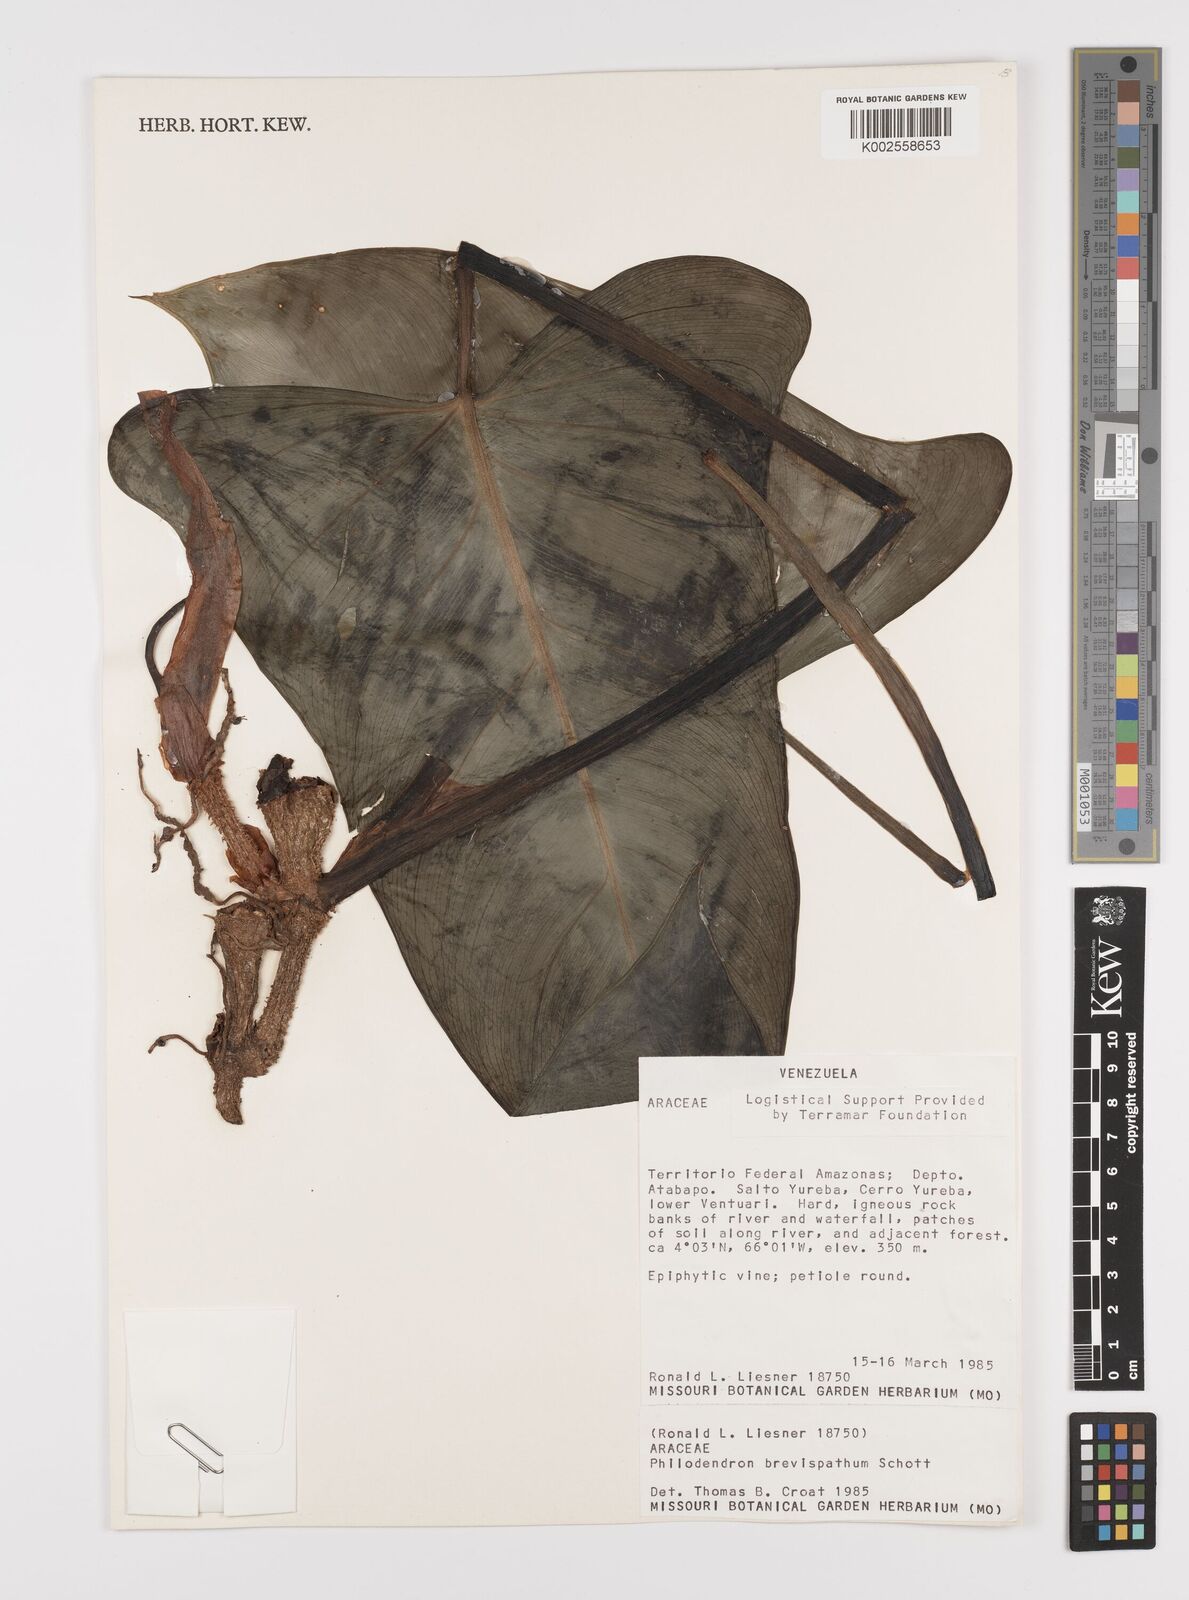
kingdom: Plantae
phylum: Tracheophyta
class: Liliopsida
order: Alismatales
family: Araceae
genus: Philodendron
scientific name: Philodendron brevispathum
